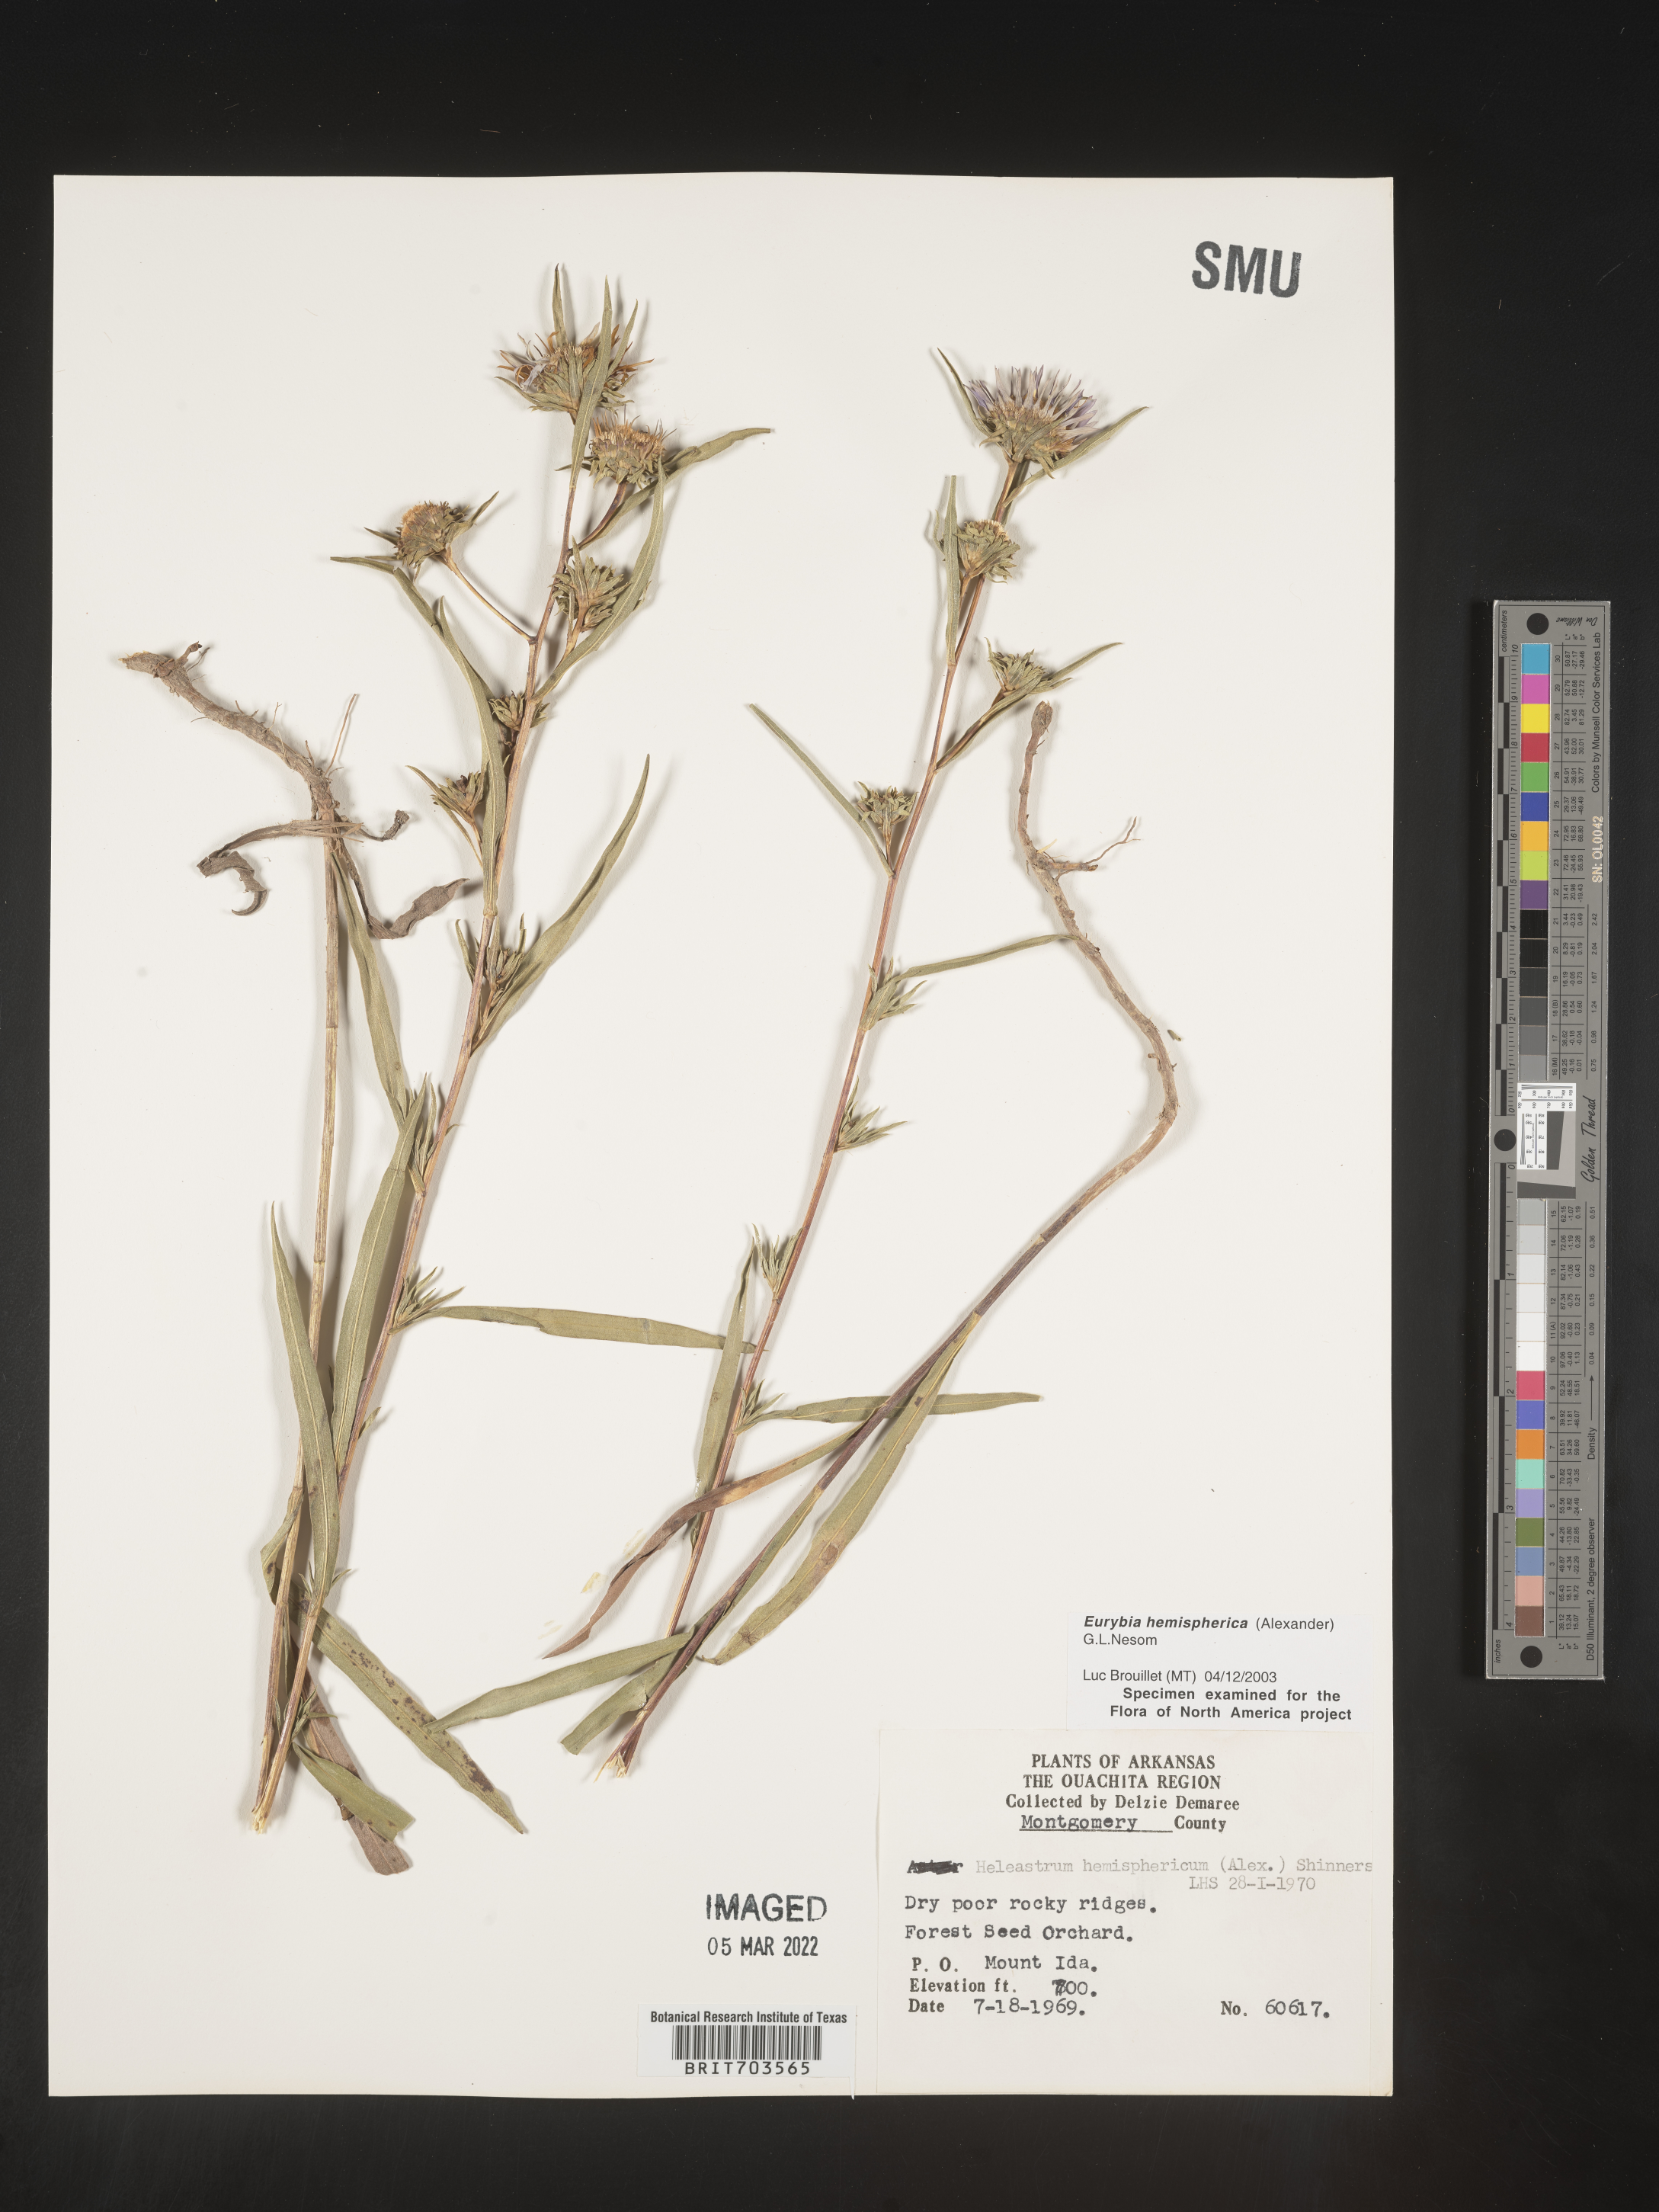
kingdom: Plantae
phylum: Tracheophyta
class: Magnoliopsida
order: Asterales
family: Asteraceae
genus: Eurybia
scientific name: Eurybia hemispherica
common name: Showy aster
